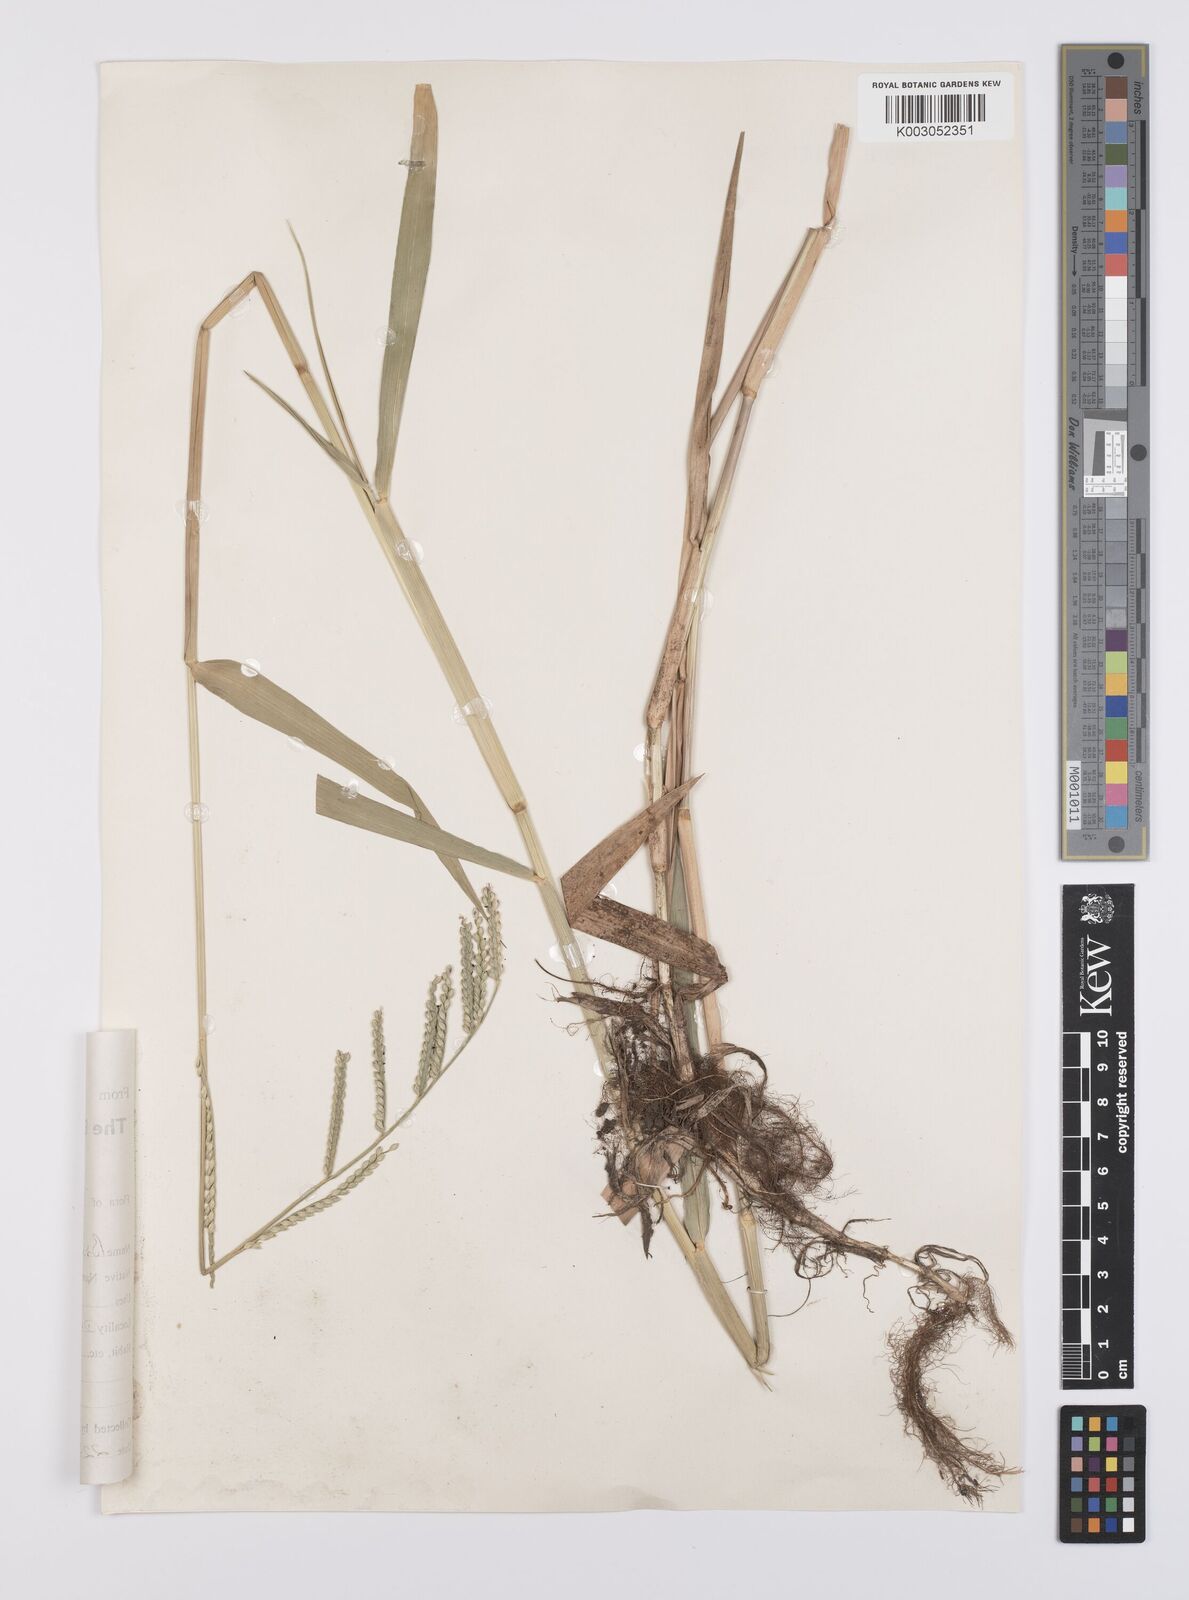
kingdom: Plantae
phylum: Tracheophyta
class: Liliopsida
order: Poales
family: Poaceae
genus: Urochloa
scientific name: Urochloa arrecta
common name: African signalgrass
